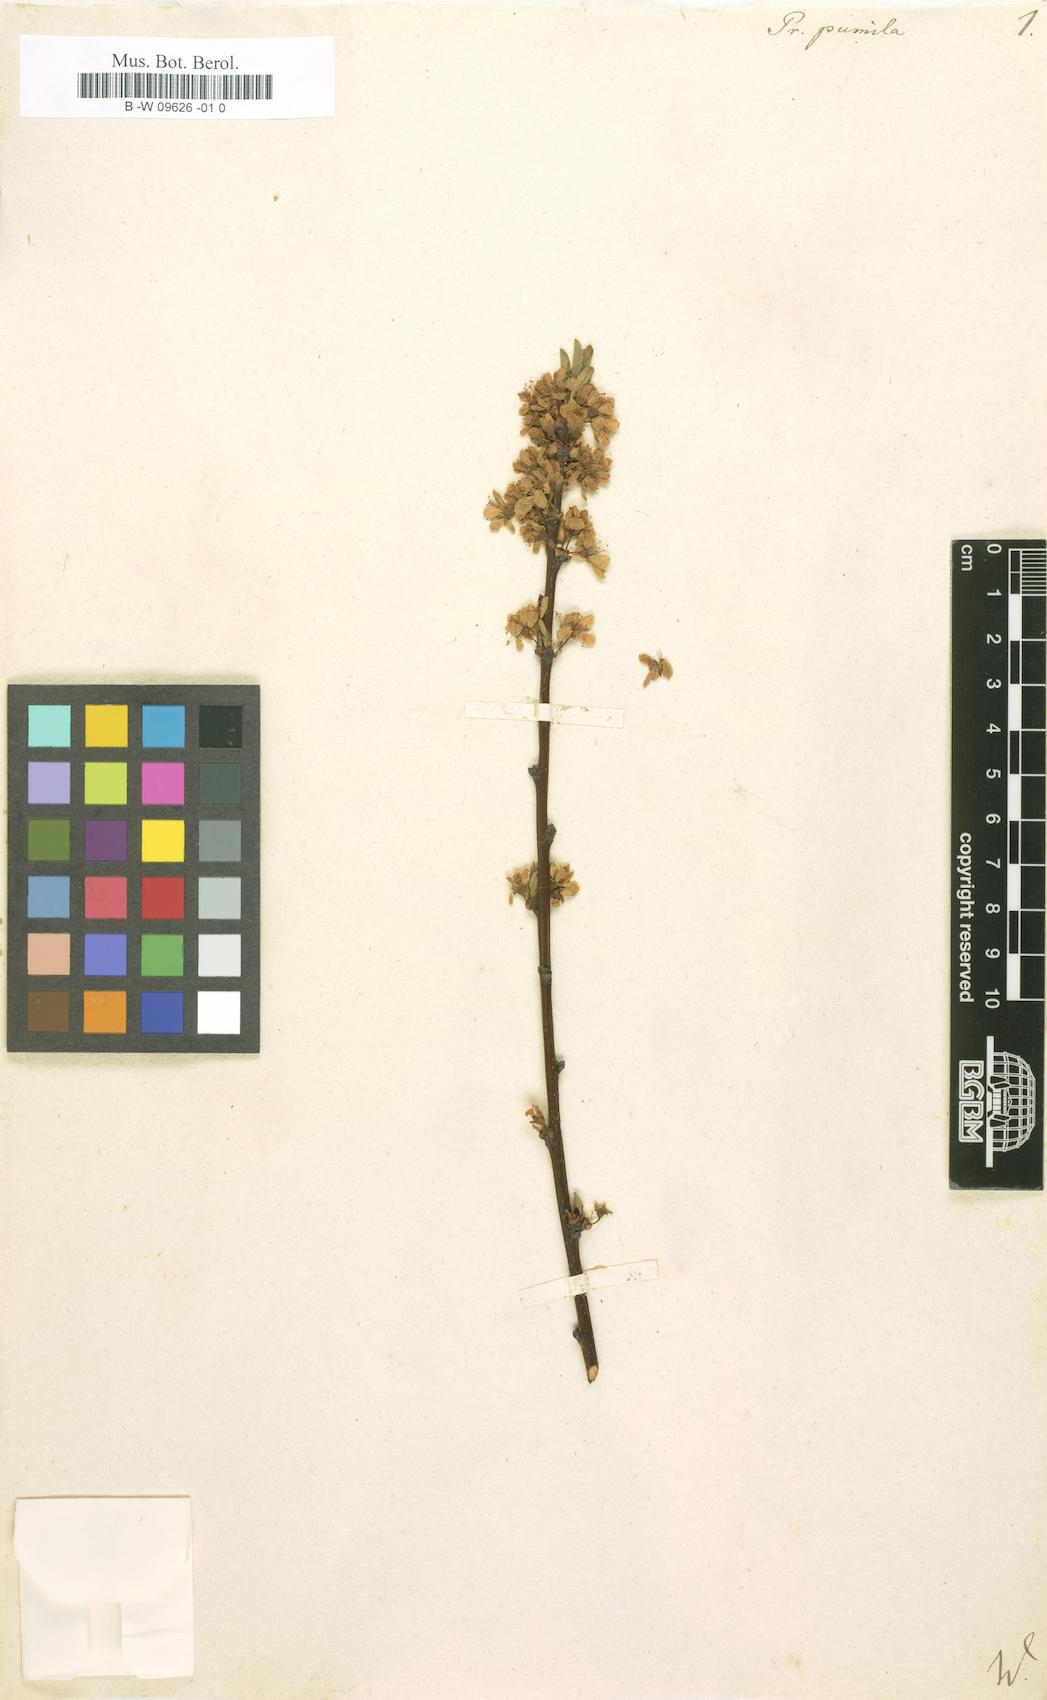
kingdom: Plantae
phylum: Tracheophyta
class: Magnoliopsida
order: Rosales
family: Rosaceae
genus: Prunus
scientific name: Prunus pumila
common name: Dwarf cherry
